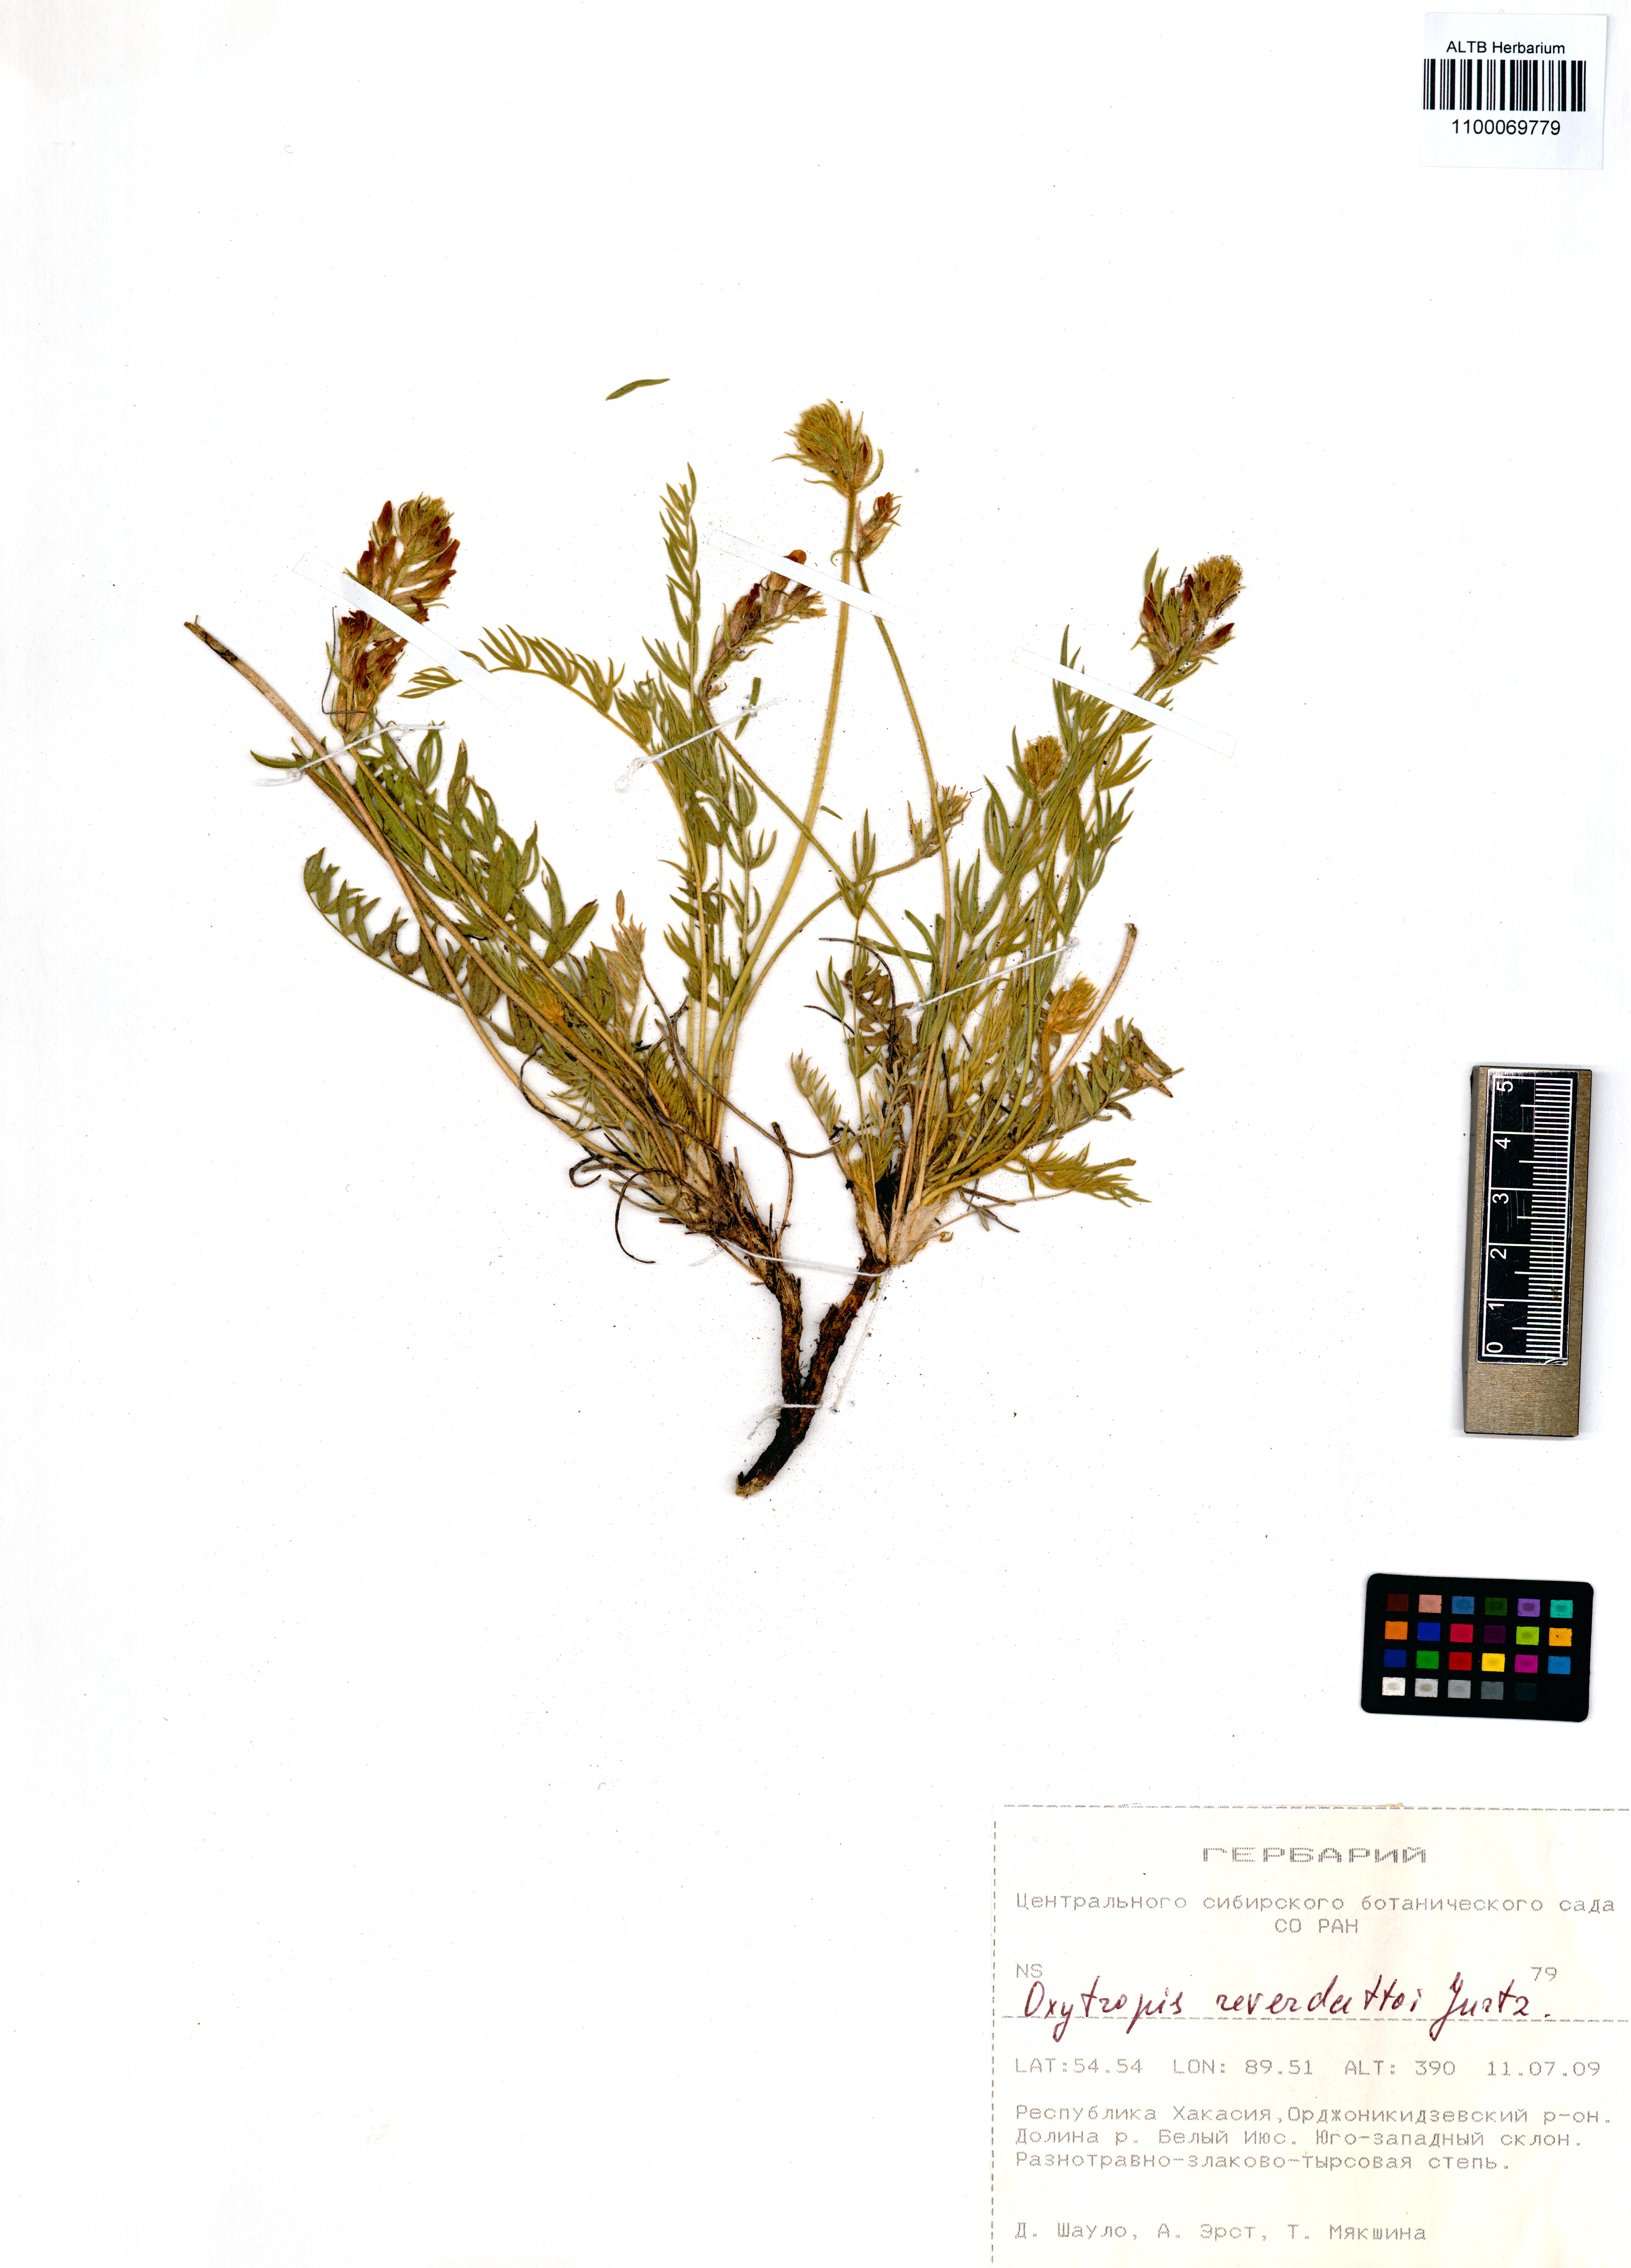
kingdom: Plantae
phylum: Tracheophyta
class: Magnoliopsida
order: Fabales
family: Fabaceae
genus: Oxytropis
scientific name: Oxytropis reverdattoi
